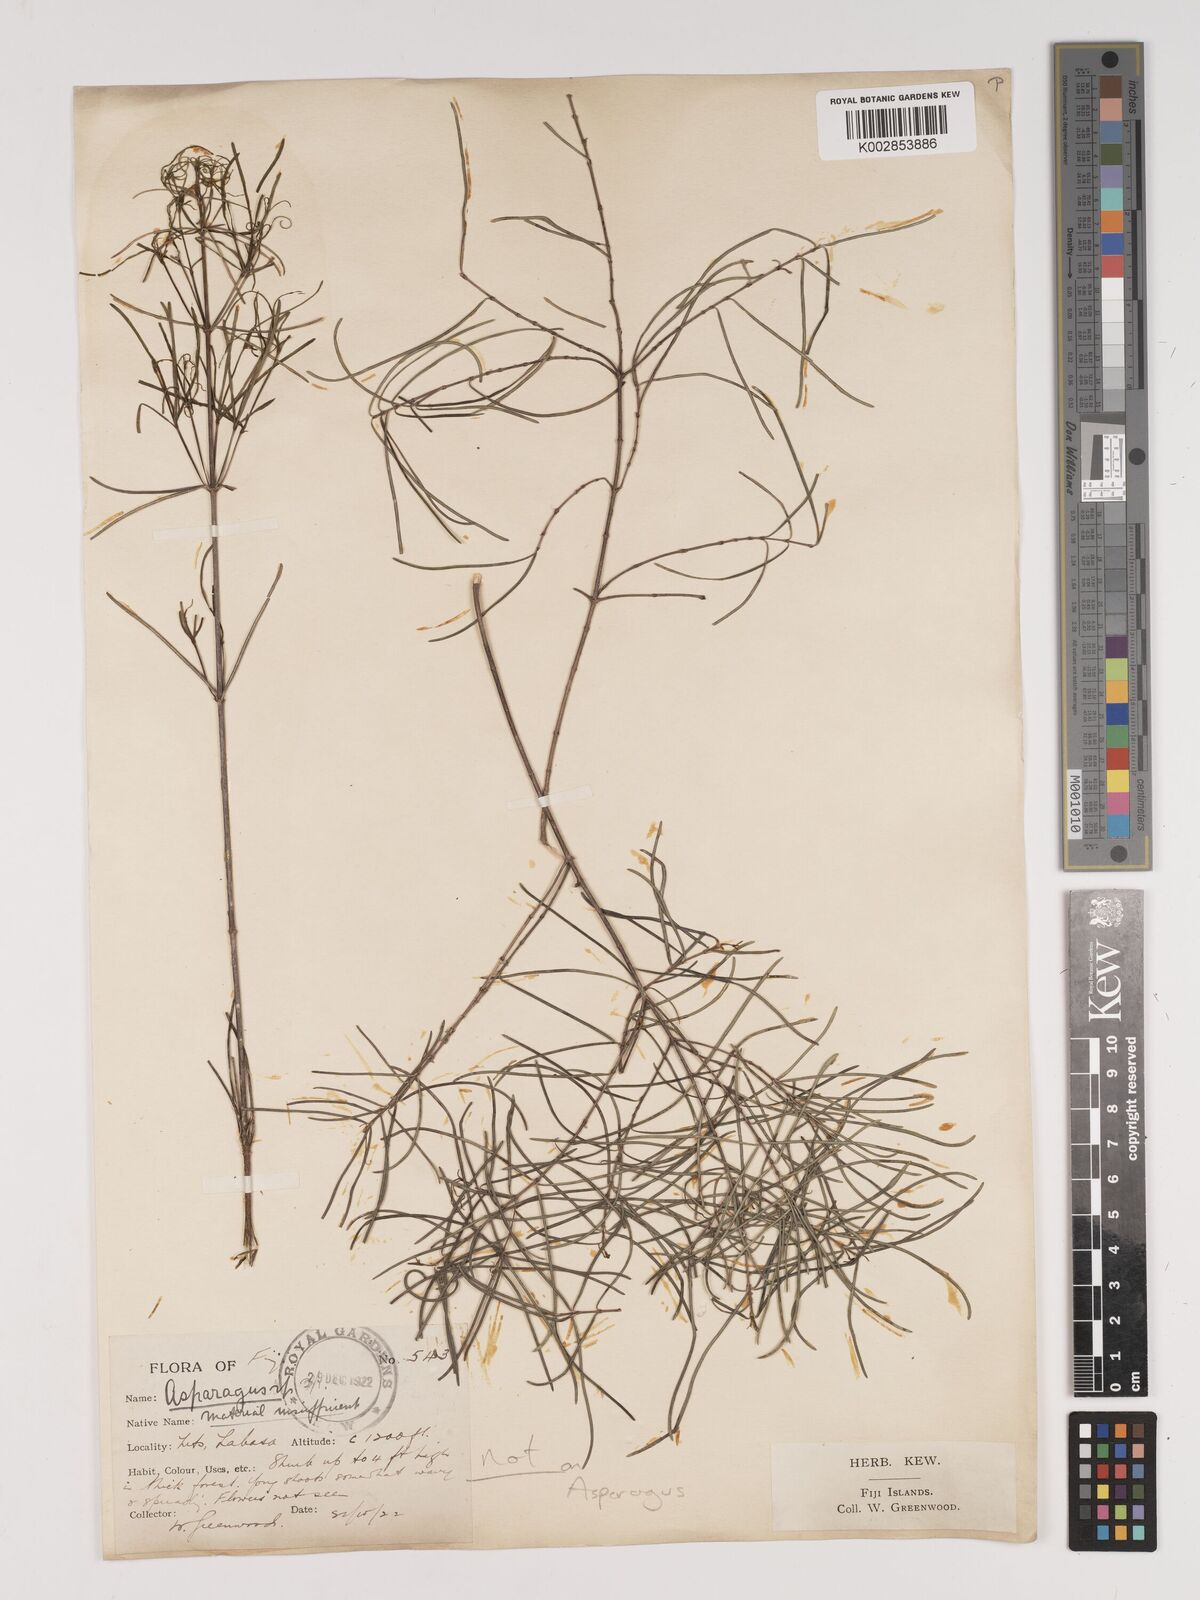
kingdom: Plantae
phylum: Tracheophyta
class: Liliopsida
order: Asparagales
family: Asparagaceae
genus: Asparagus
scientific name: Asparagus racemosus
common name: Asparagus-fern
